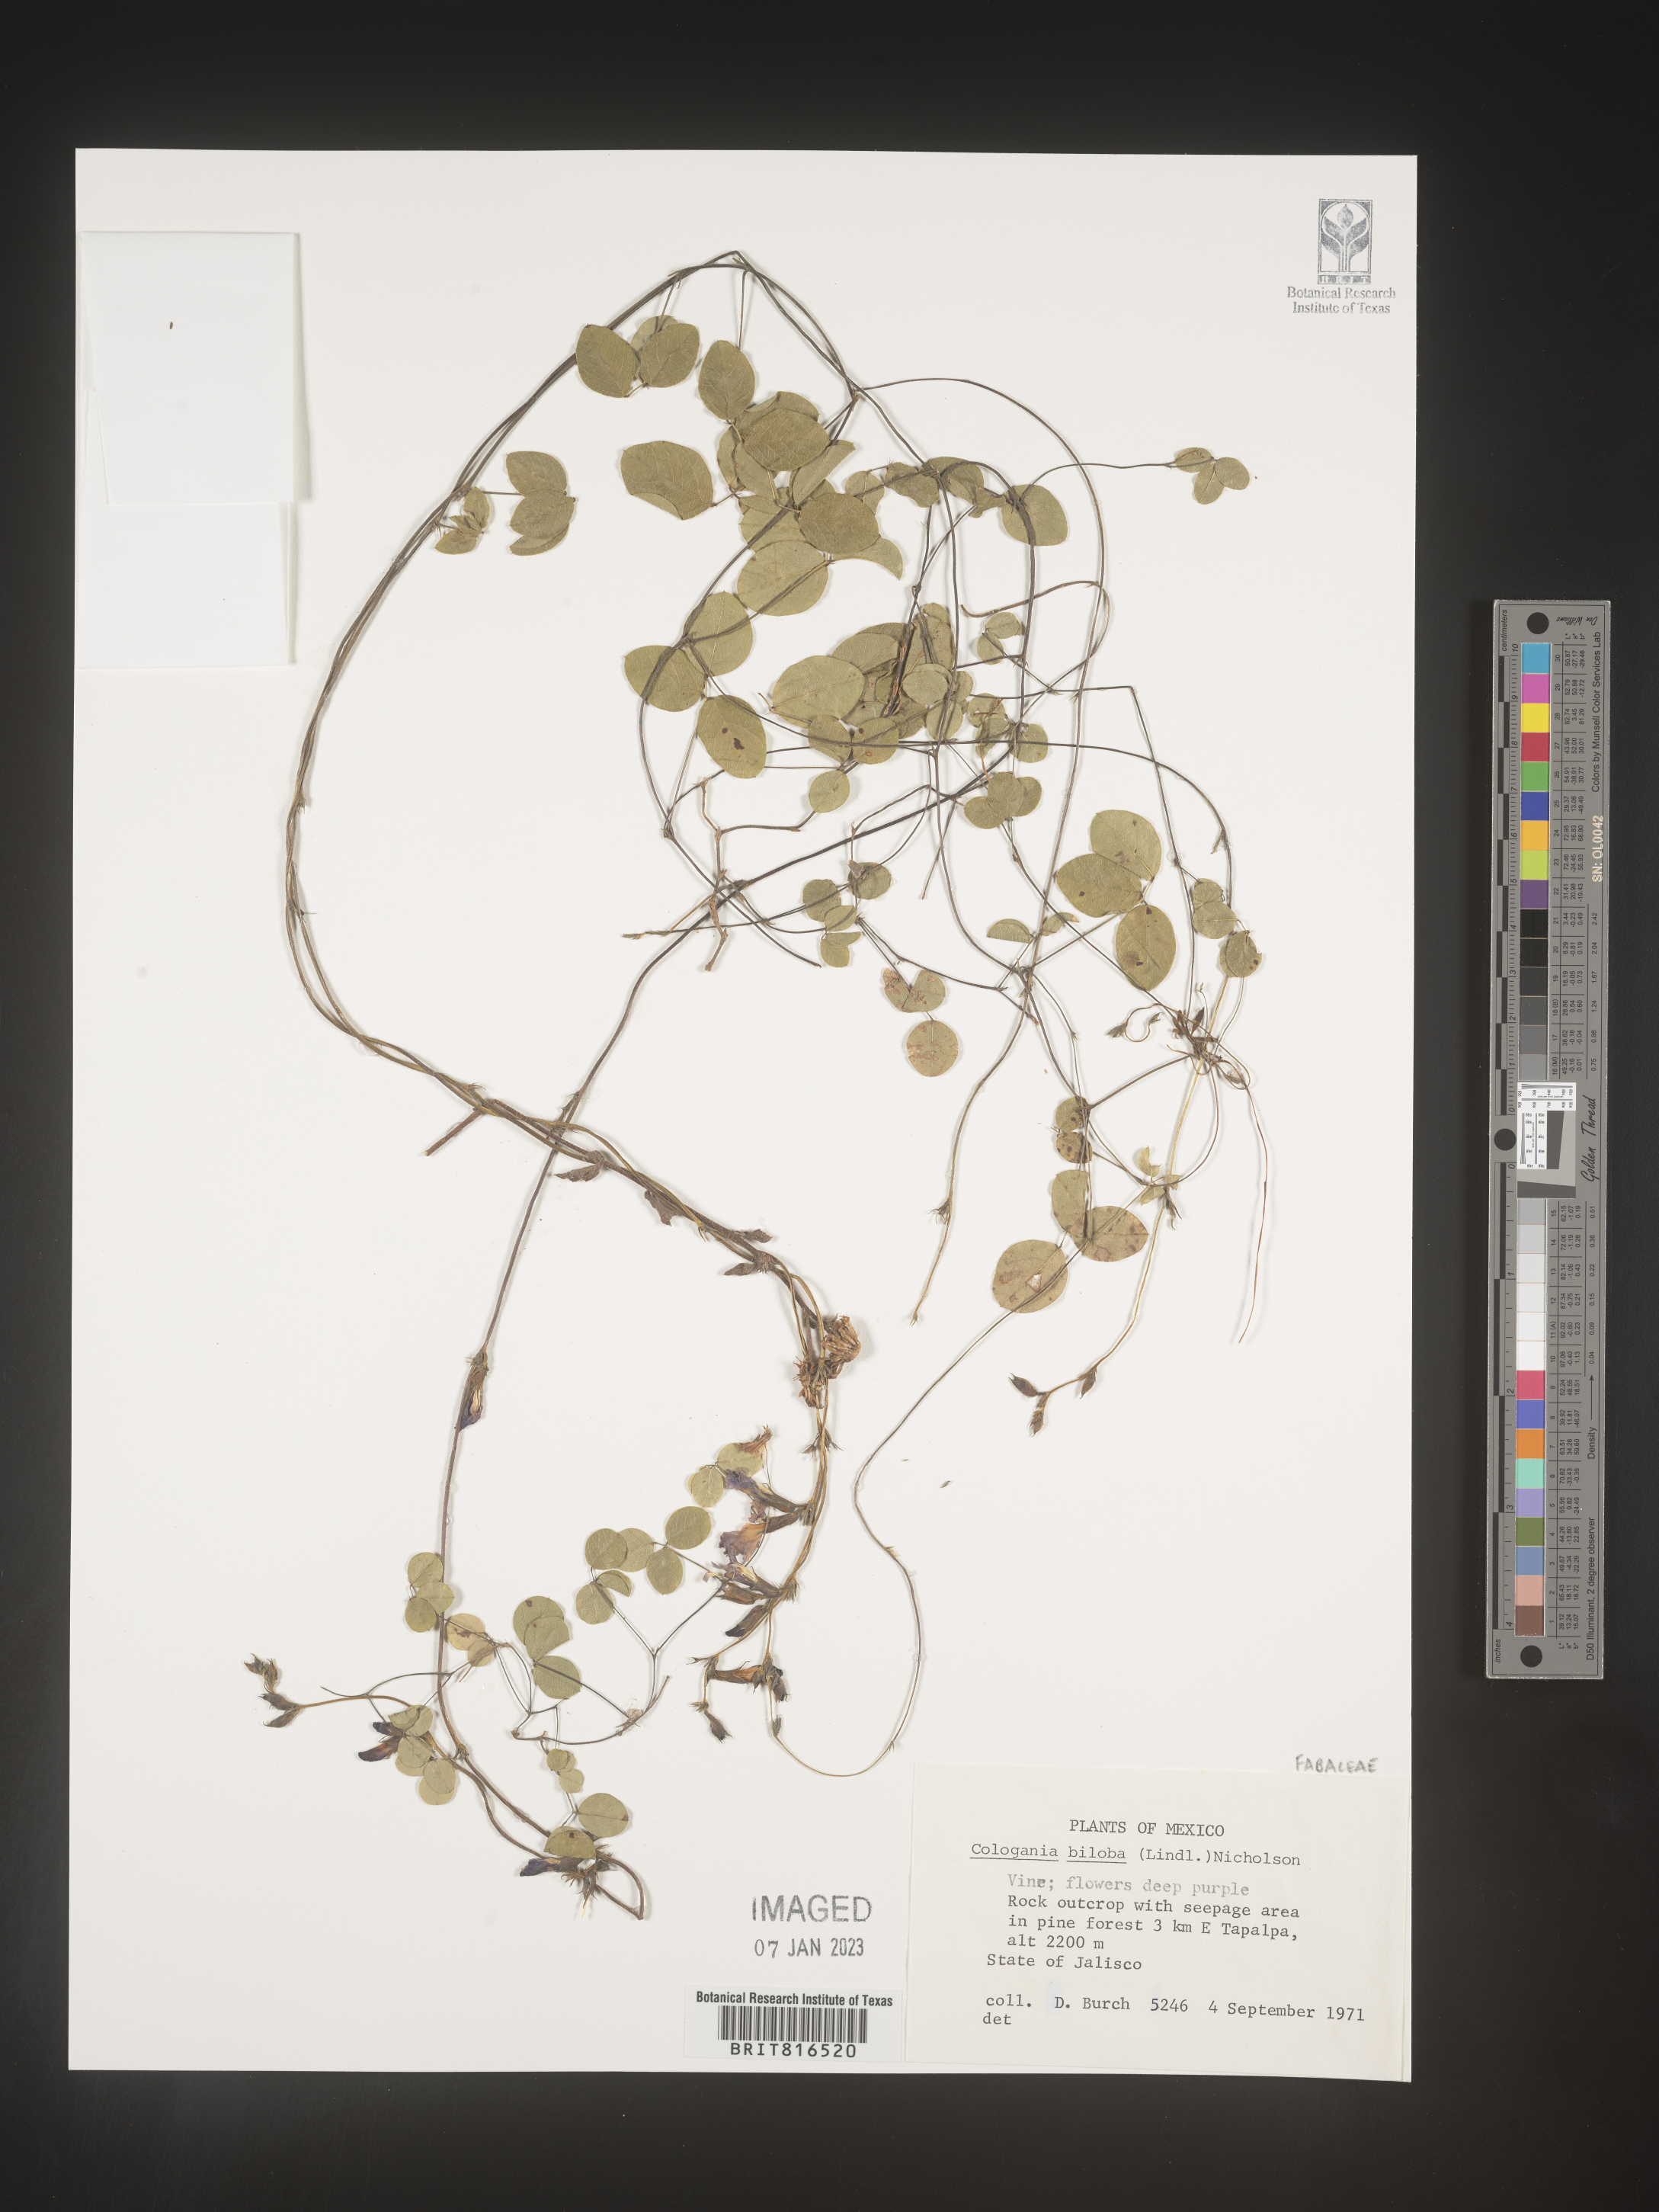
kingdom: Plantae
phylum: Tracheophyta
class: Magnoliopsida
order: Fabales
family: Fabaceae
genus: Cologania
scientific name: Cologania biloba
